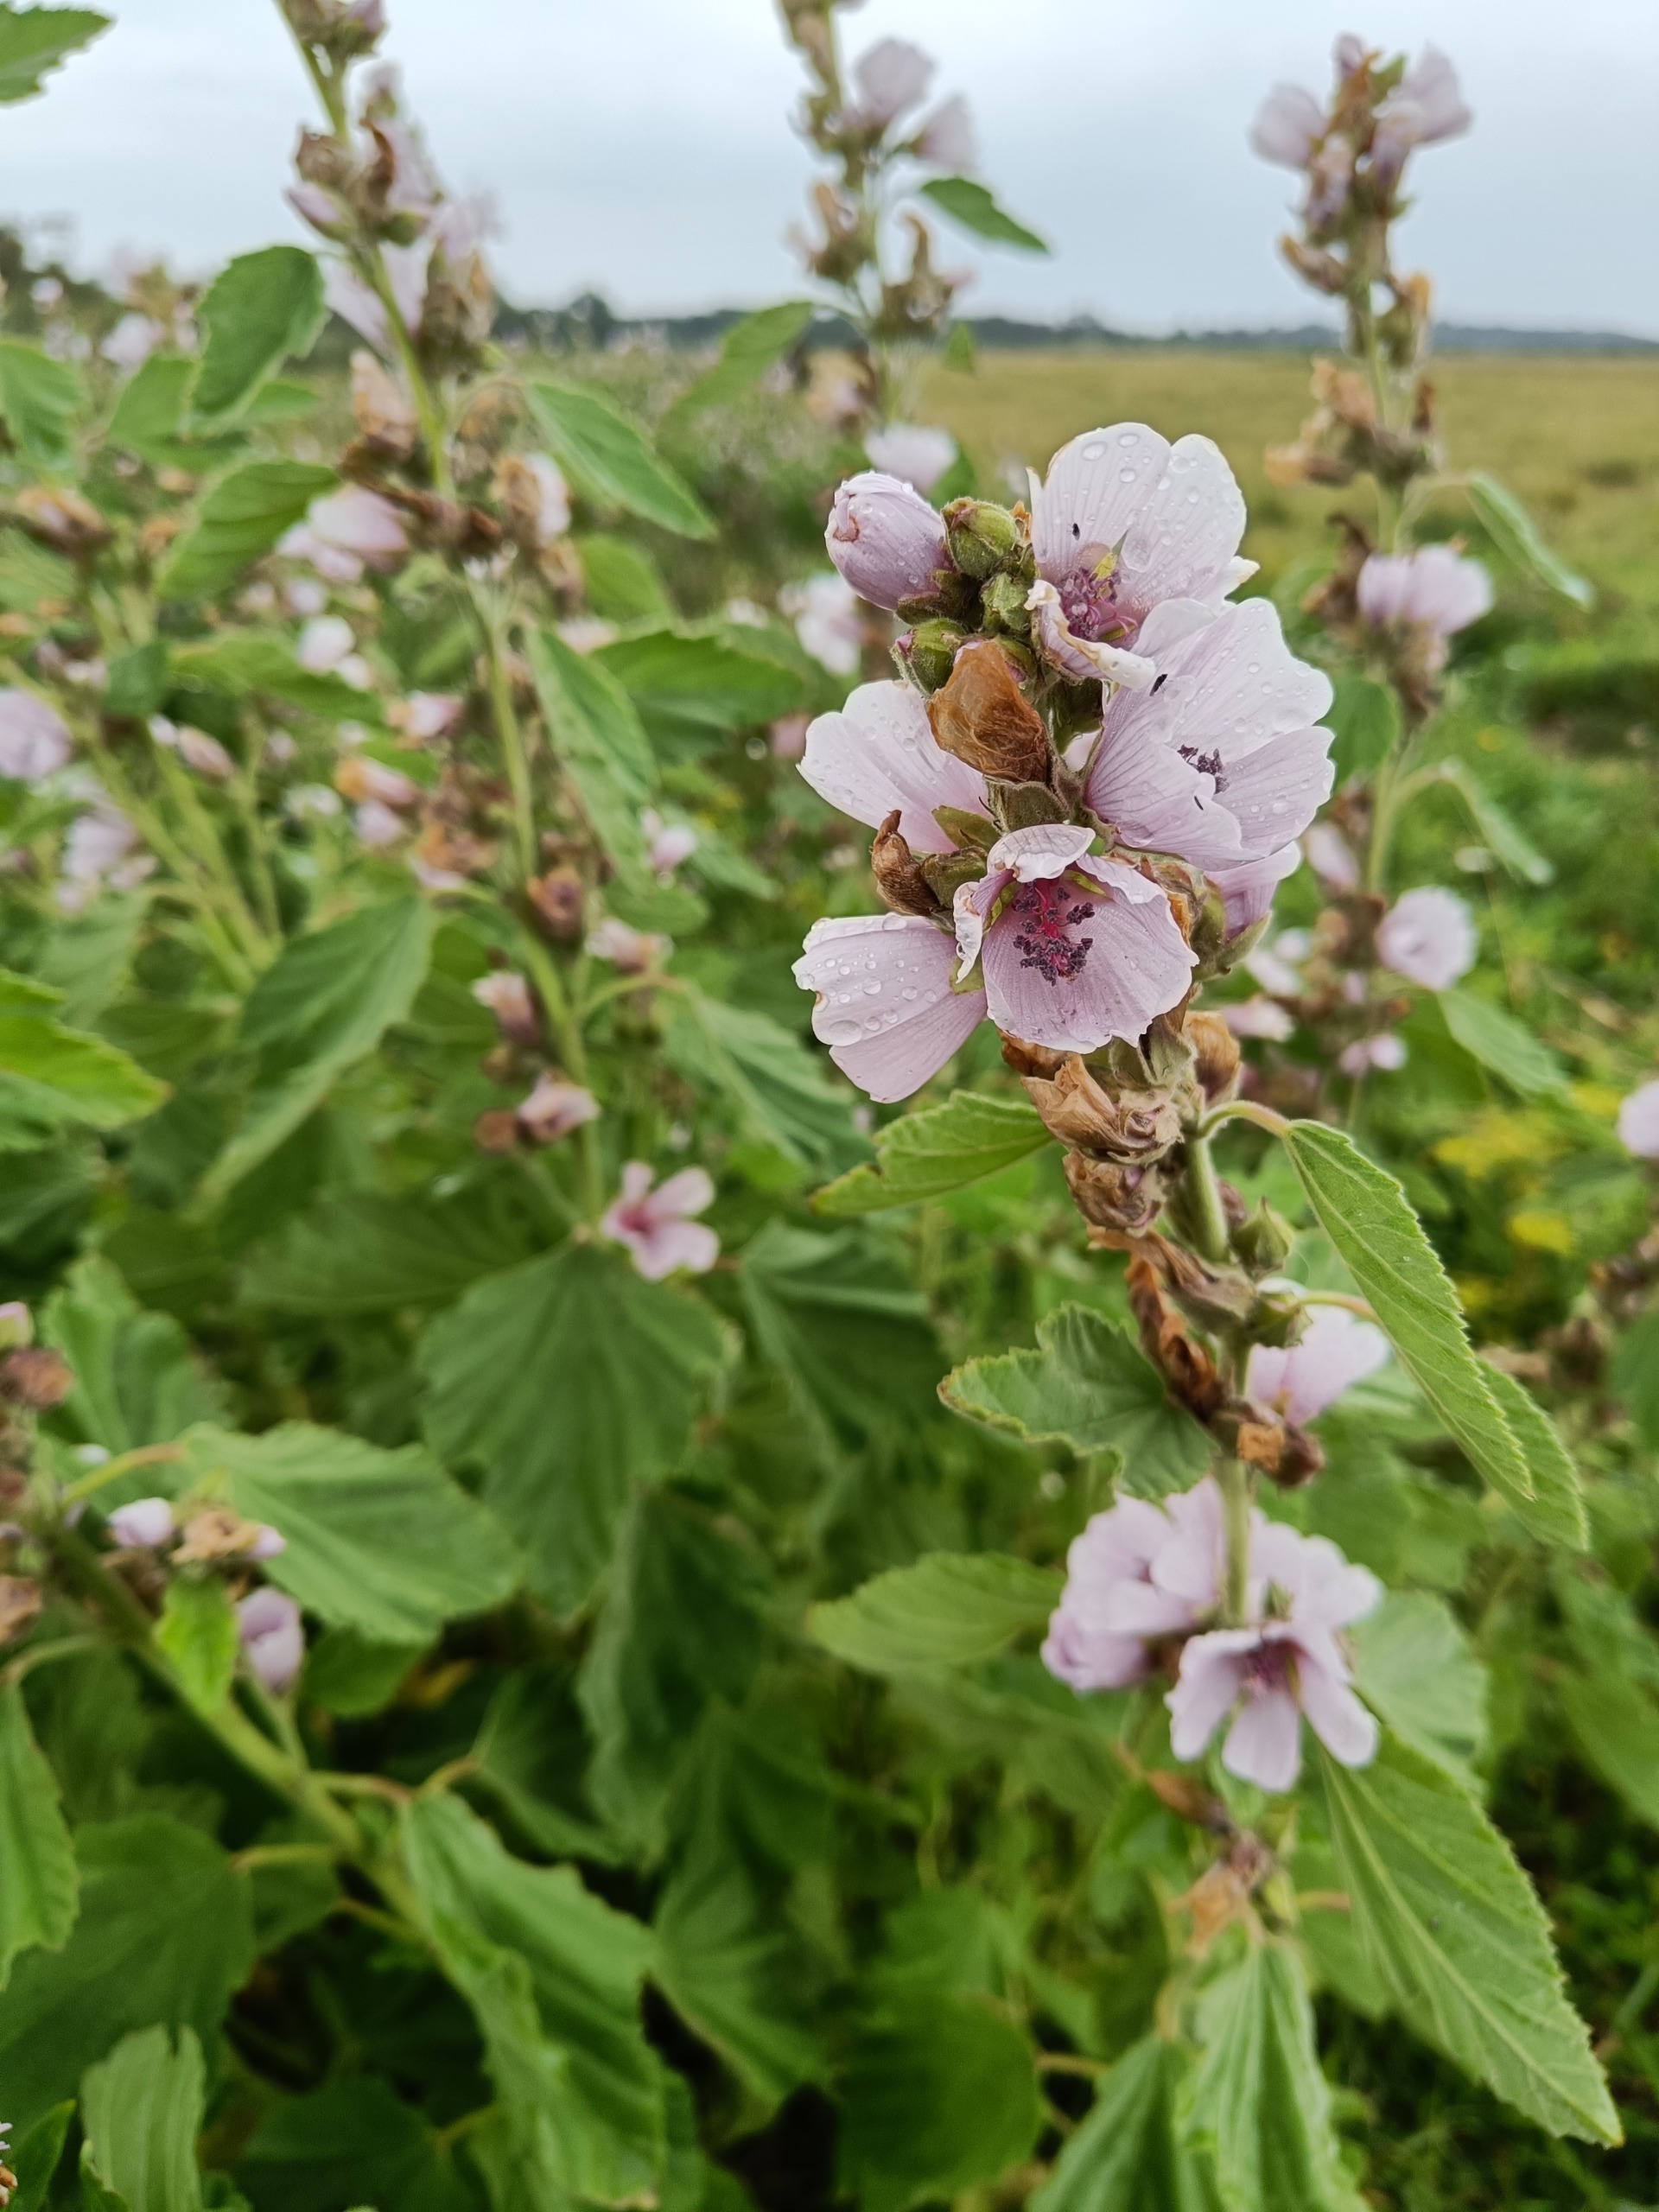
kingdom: Plantae
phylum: Tracheophyta
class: Magnoliopsida
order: Malvales
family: Malvaceae
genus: Althaea
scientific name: Althaea officinalis
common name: Lægestokrose
